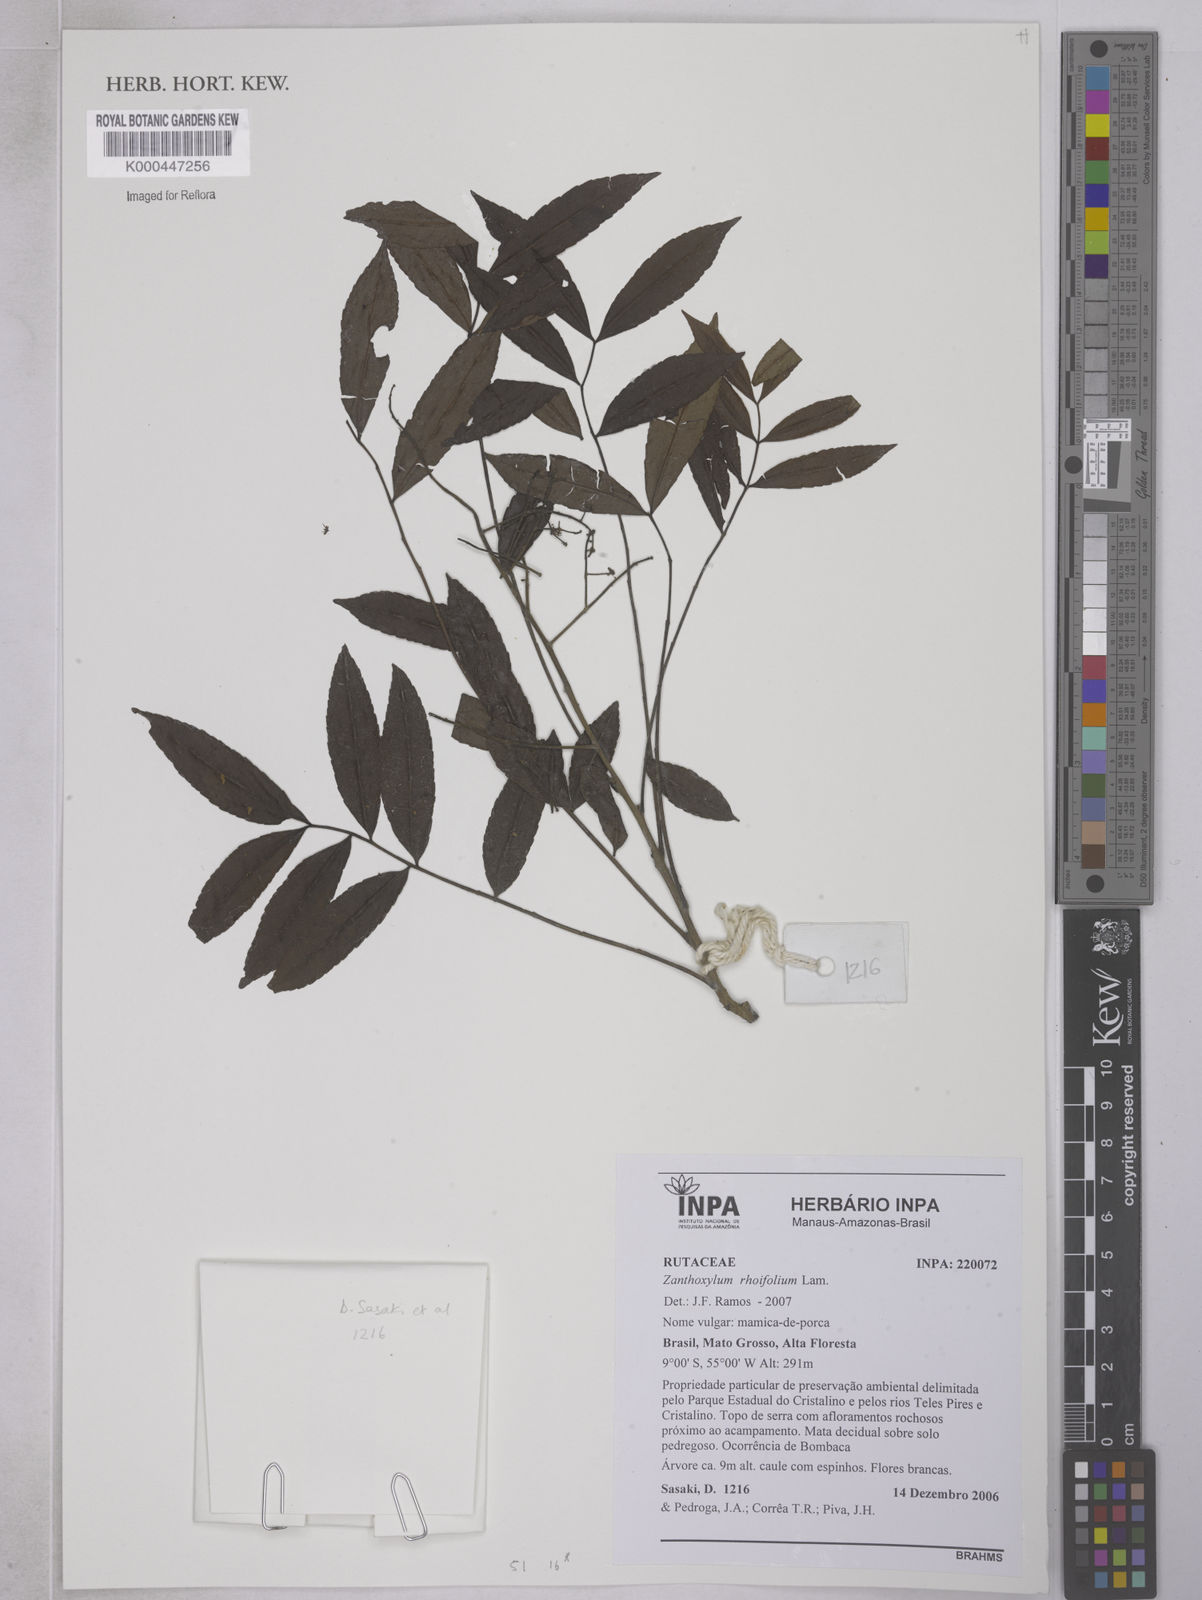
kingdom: Plantae
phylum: Tracheophyta
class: Magnoliopsida
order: Sapindales
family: Rutaceae
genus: Zanthoxylum
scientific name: Zanthoxylum rhoifolium
